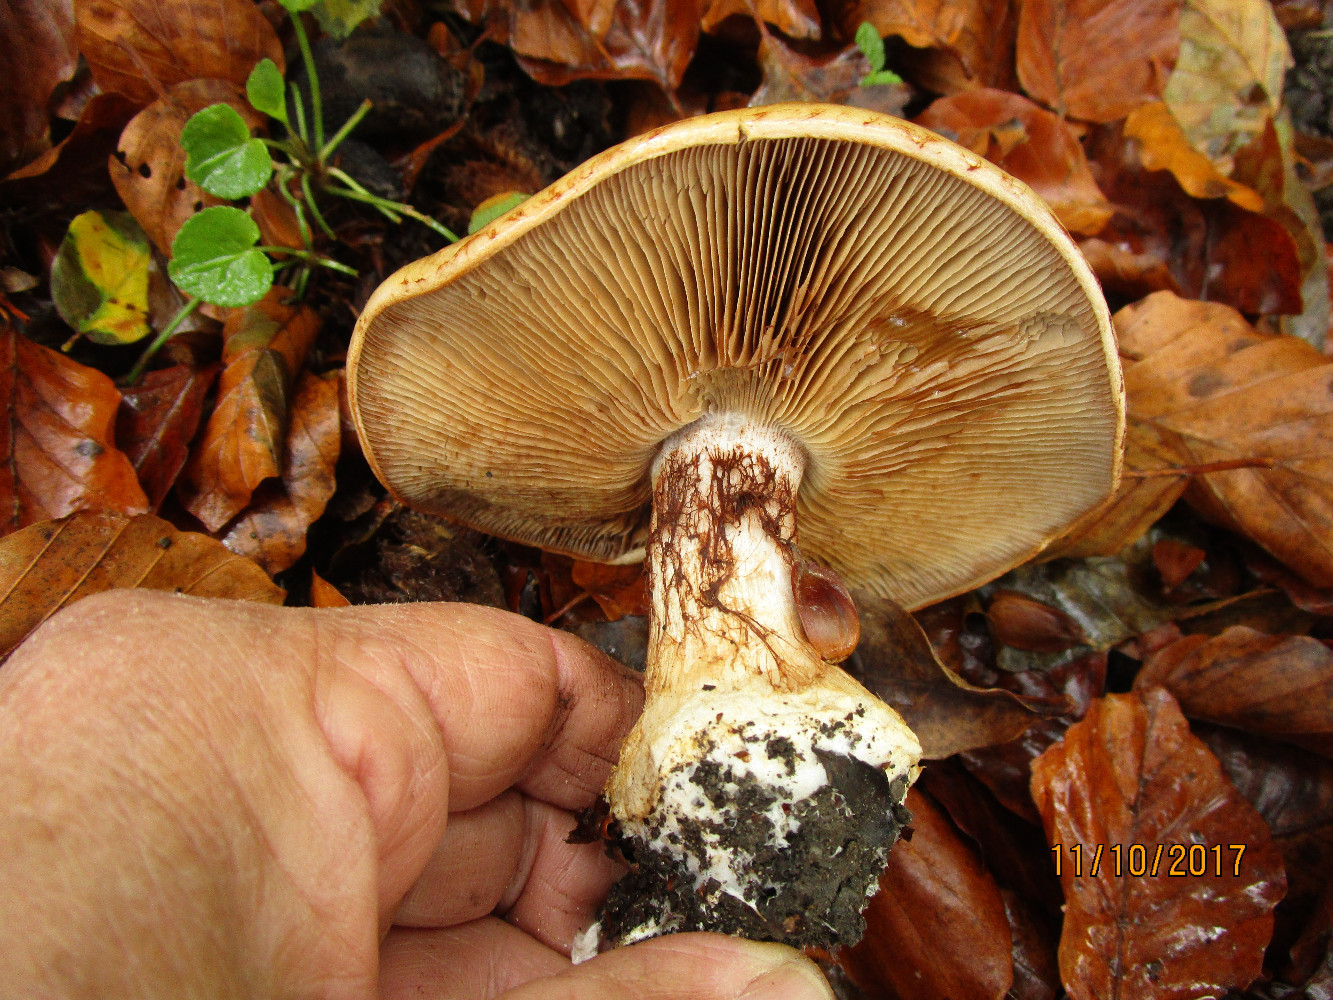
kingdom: Fungi
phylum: Basidiomycota
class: Agaricomycetes
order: Agaricales
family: Cortinariaceae
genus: Cortinarius
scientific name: Cortinarius anserinus
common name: bøge-slørhat
